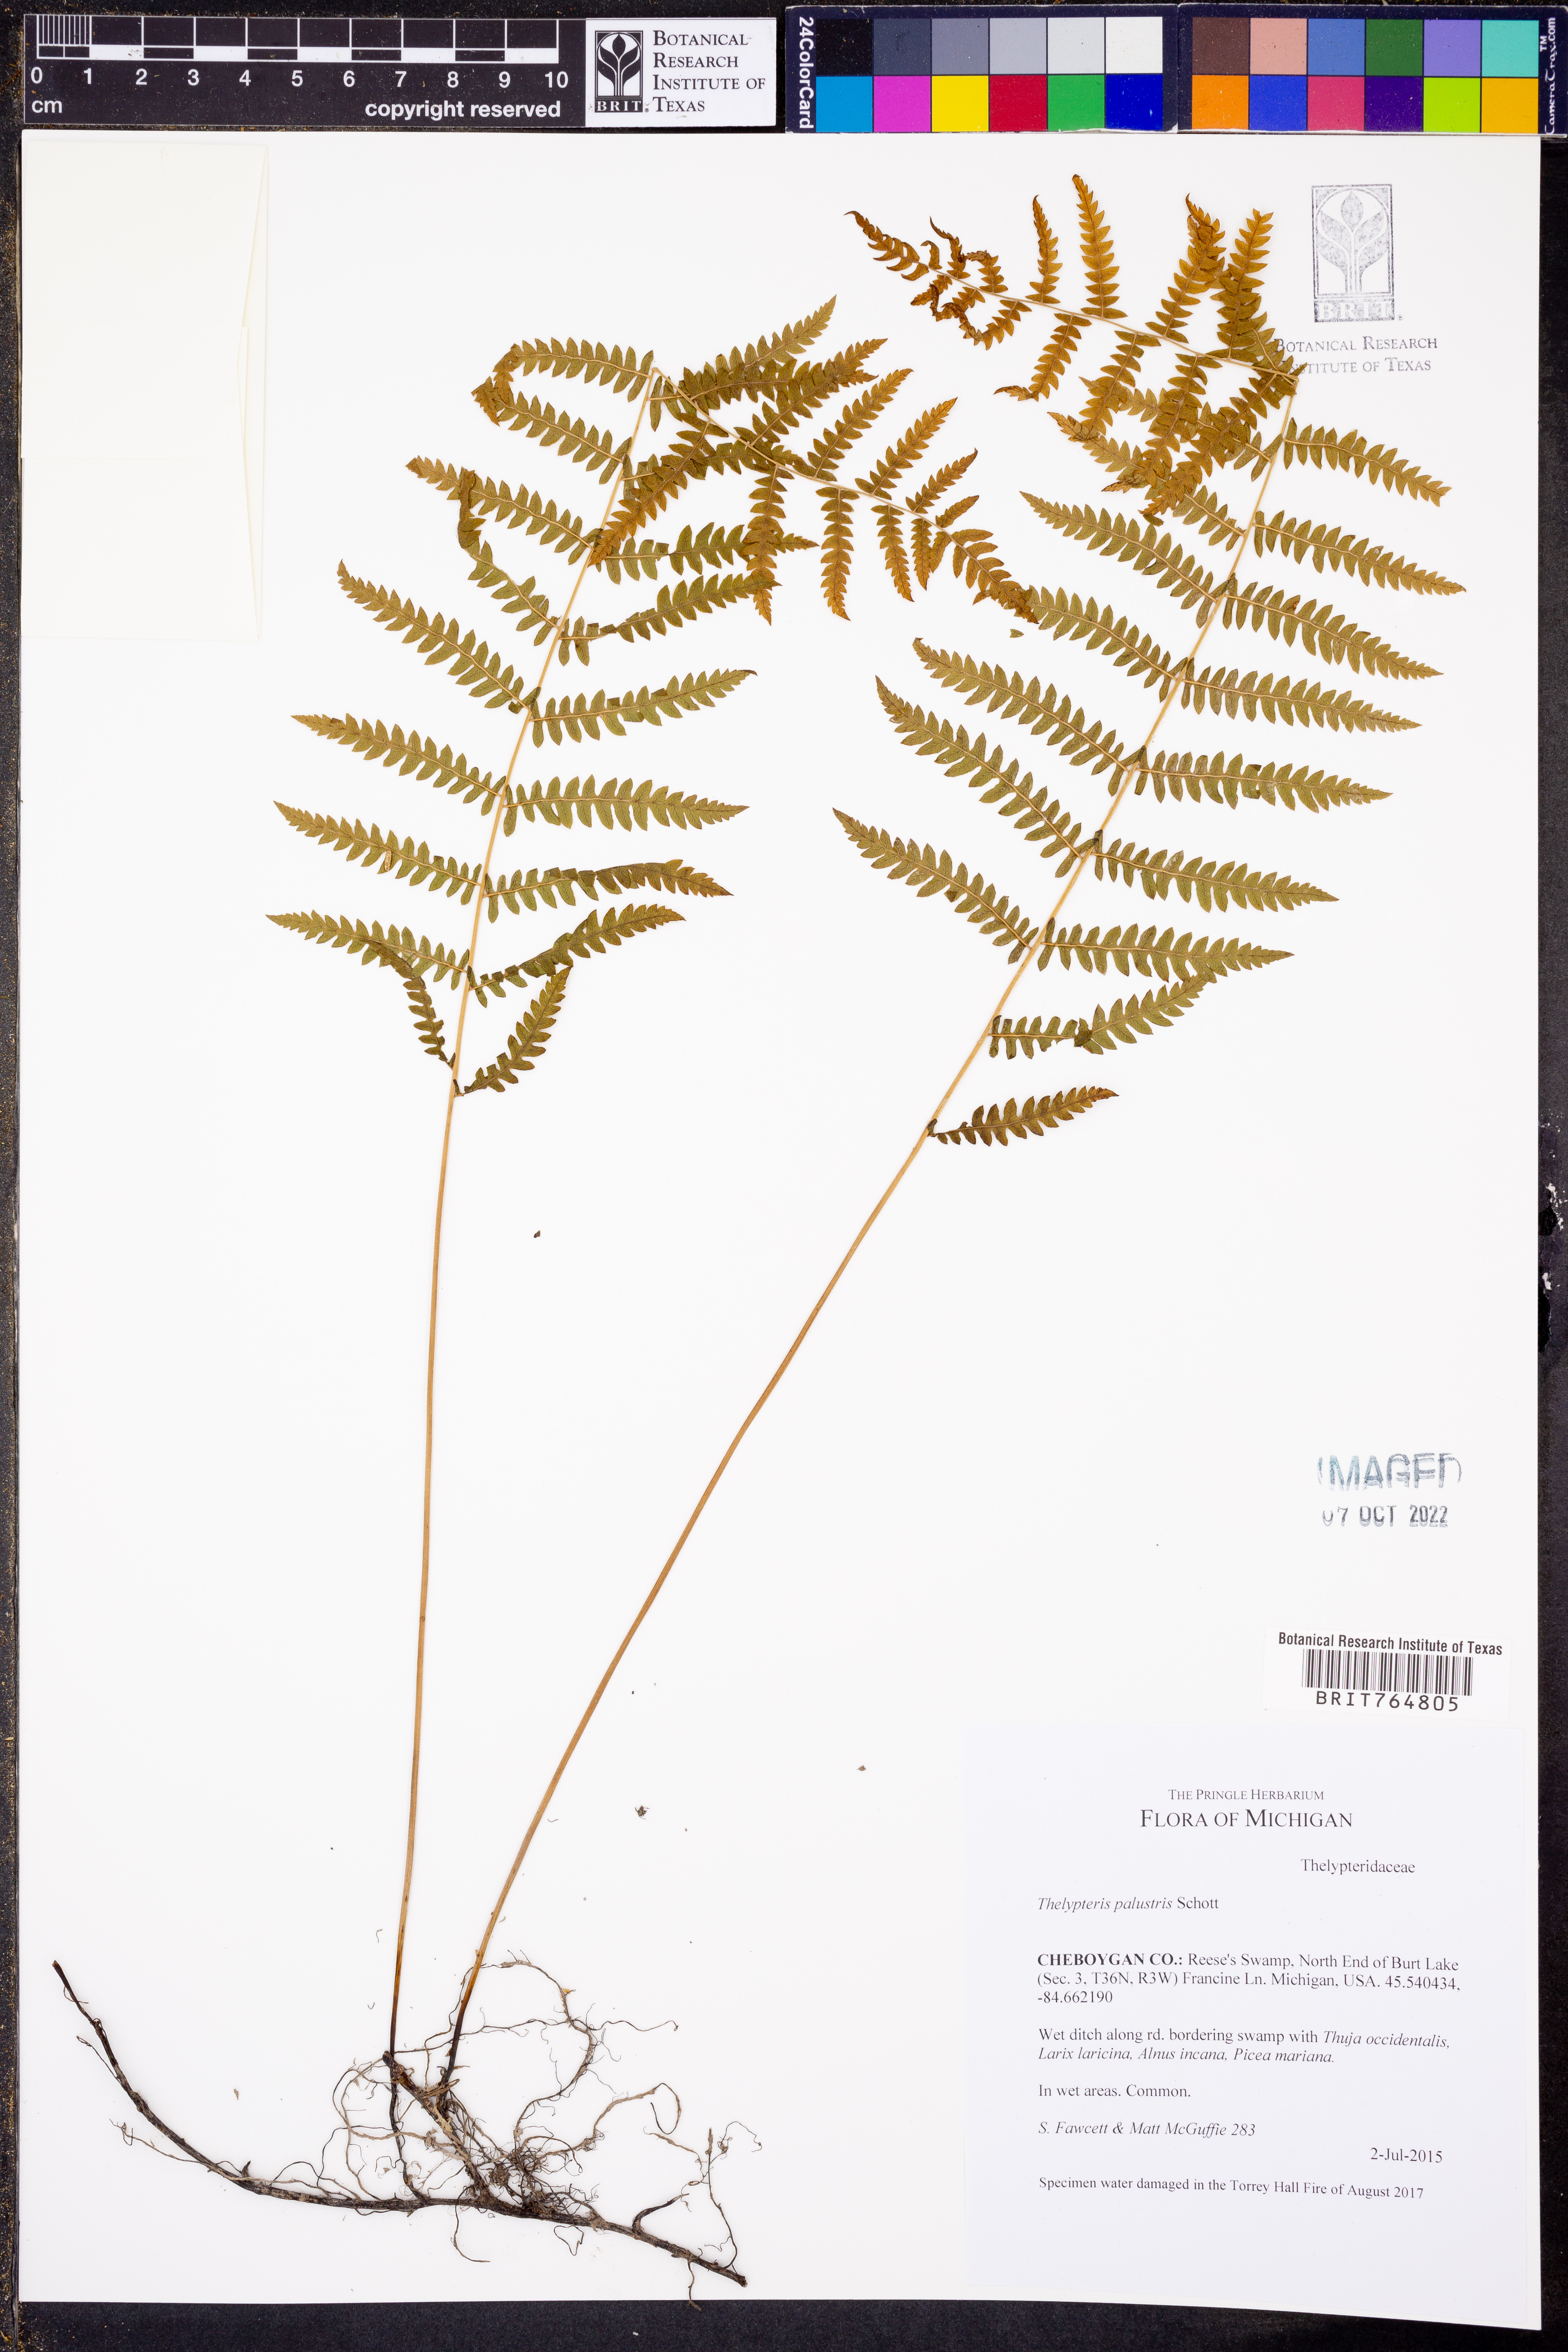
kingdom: Plantae
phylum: Tracheophyta
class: Polypodiopsida
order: Polypodiales
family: Thelypteridaceae
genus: Thelypteris
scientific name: Thelypteris palustris
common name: Marsh fern
